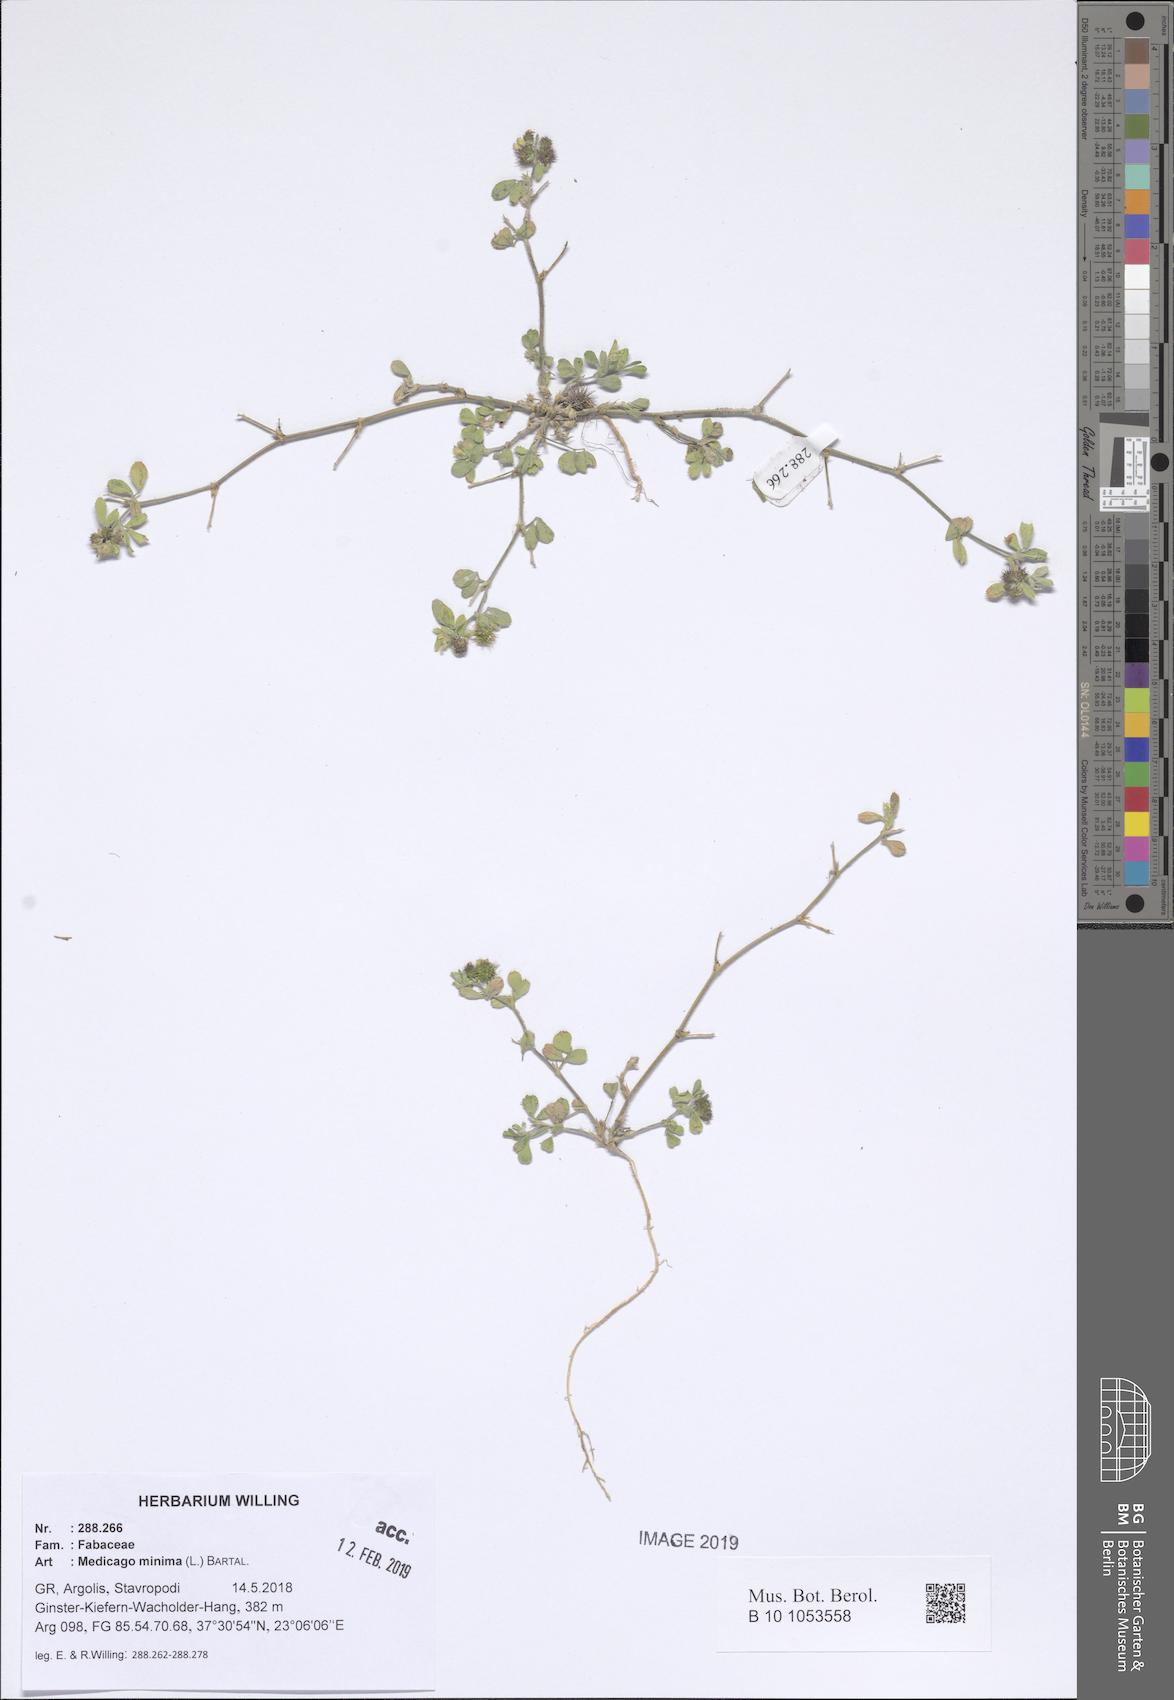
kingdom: Plantae
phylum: Tracheophyta
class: Magnoliopsida
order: Fabales
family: Fabaceae
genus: Medicago
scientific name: Medicago minima
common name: Little bur-clover
